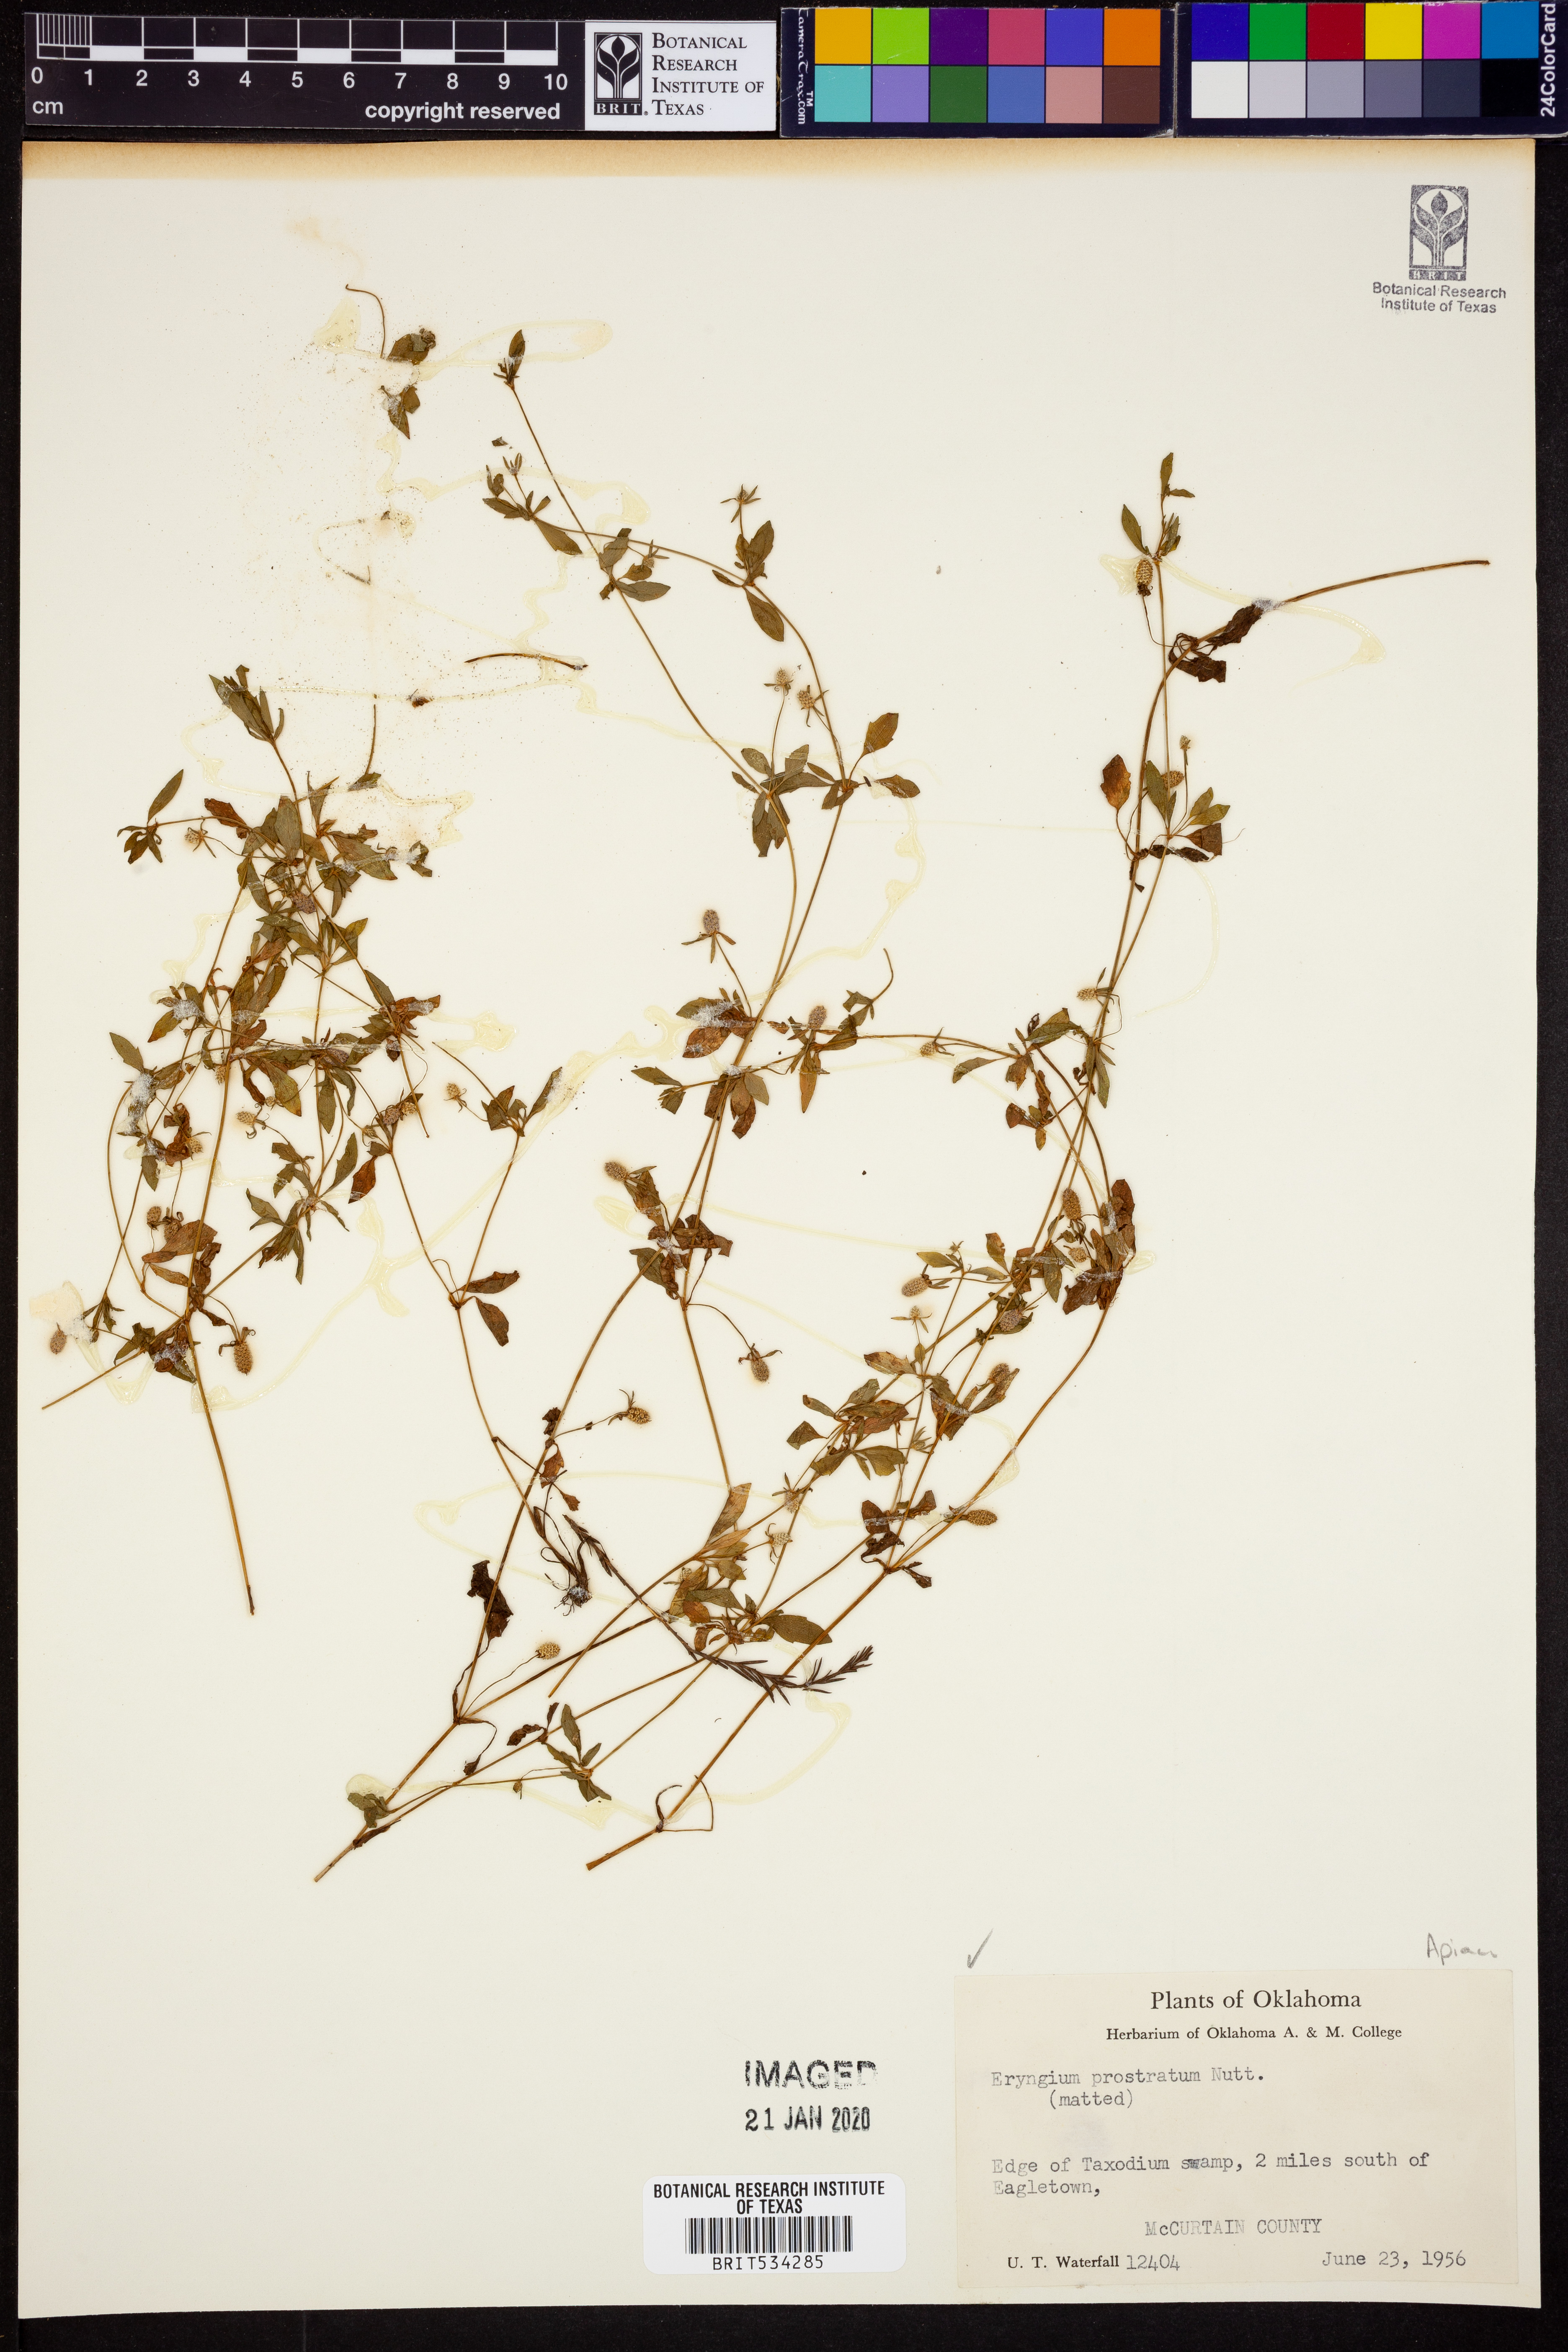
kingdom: Plantae
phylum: Tracheophyta
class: Magnoliopsida
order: Apiales
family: Apiaceae
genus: Eryngium
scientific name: Eryngium prostratum
